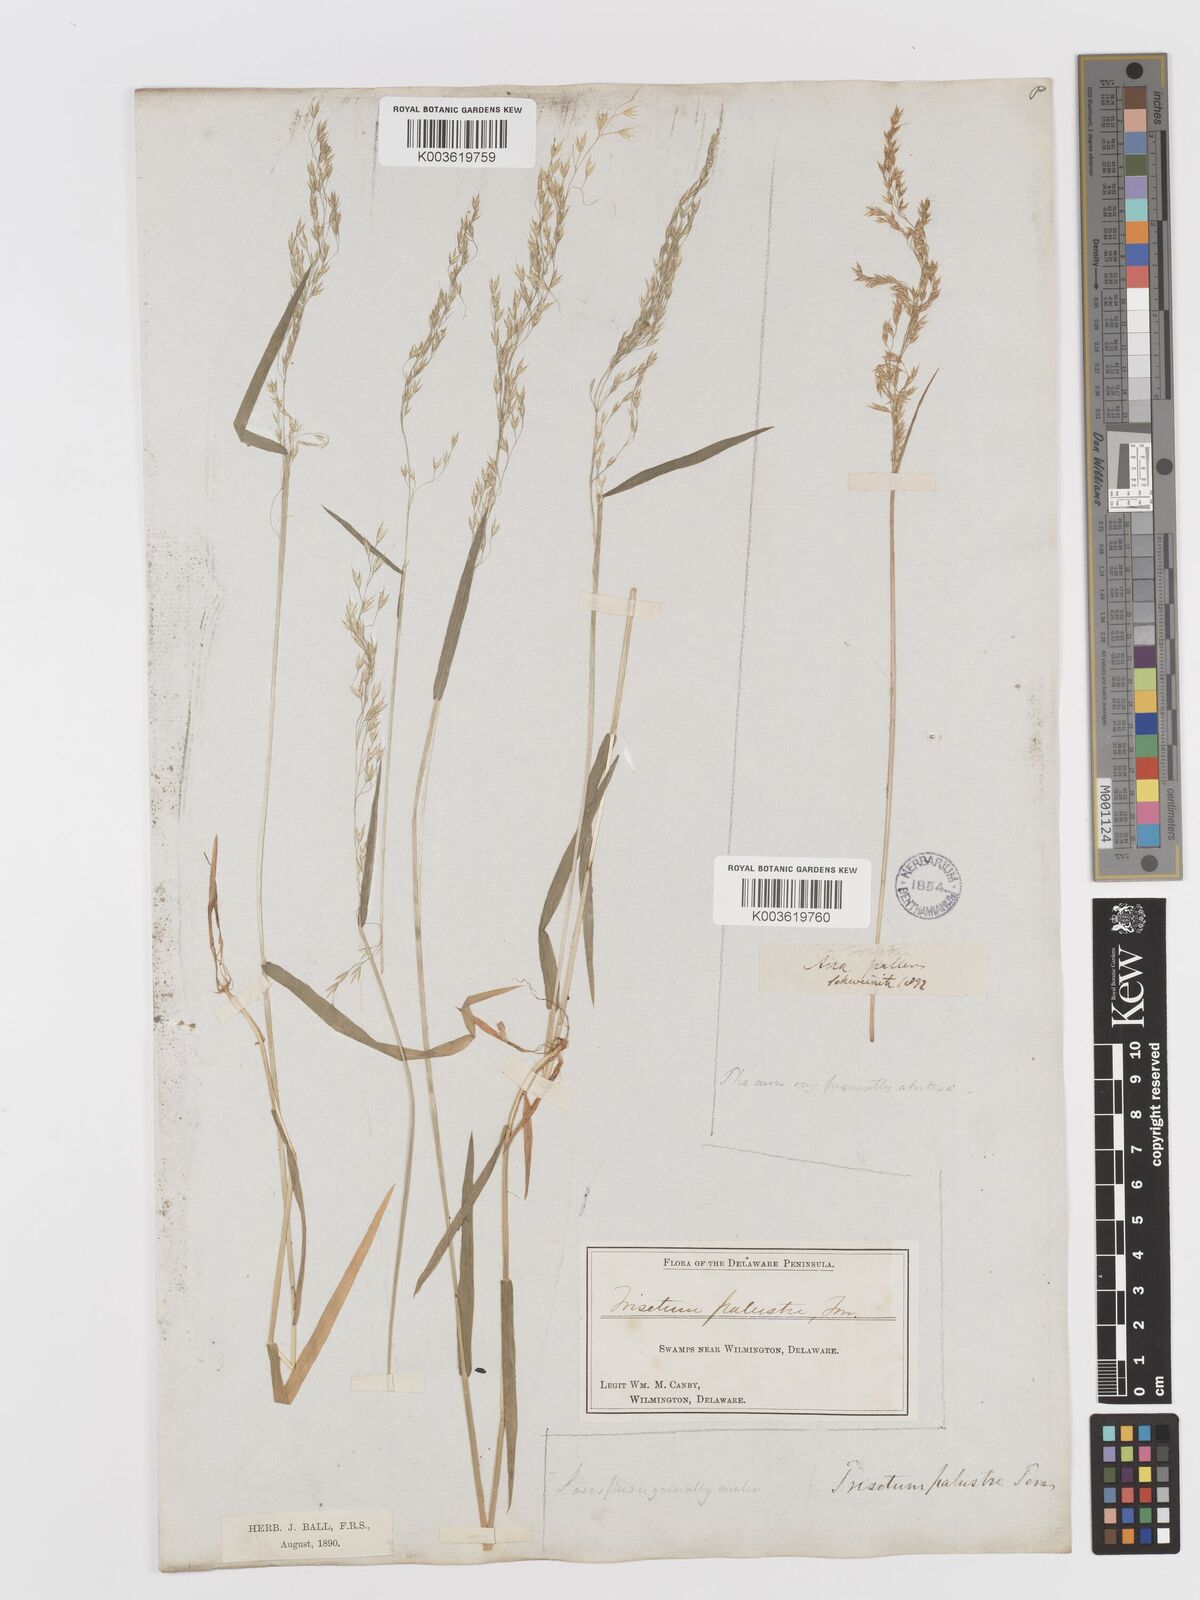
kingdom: Plantae
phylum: Tracheophyta
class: Liliopsida
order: Poales
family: Poaceae
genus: Sphenopholis
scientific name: Sphenopholis pensylvanica
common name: Swamp oats
